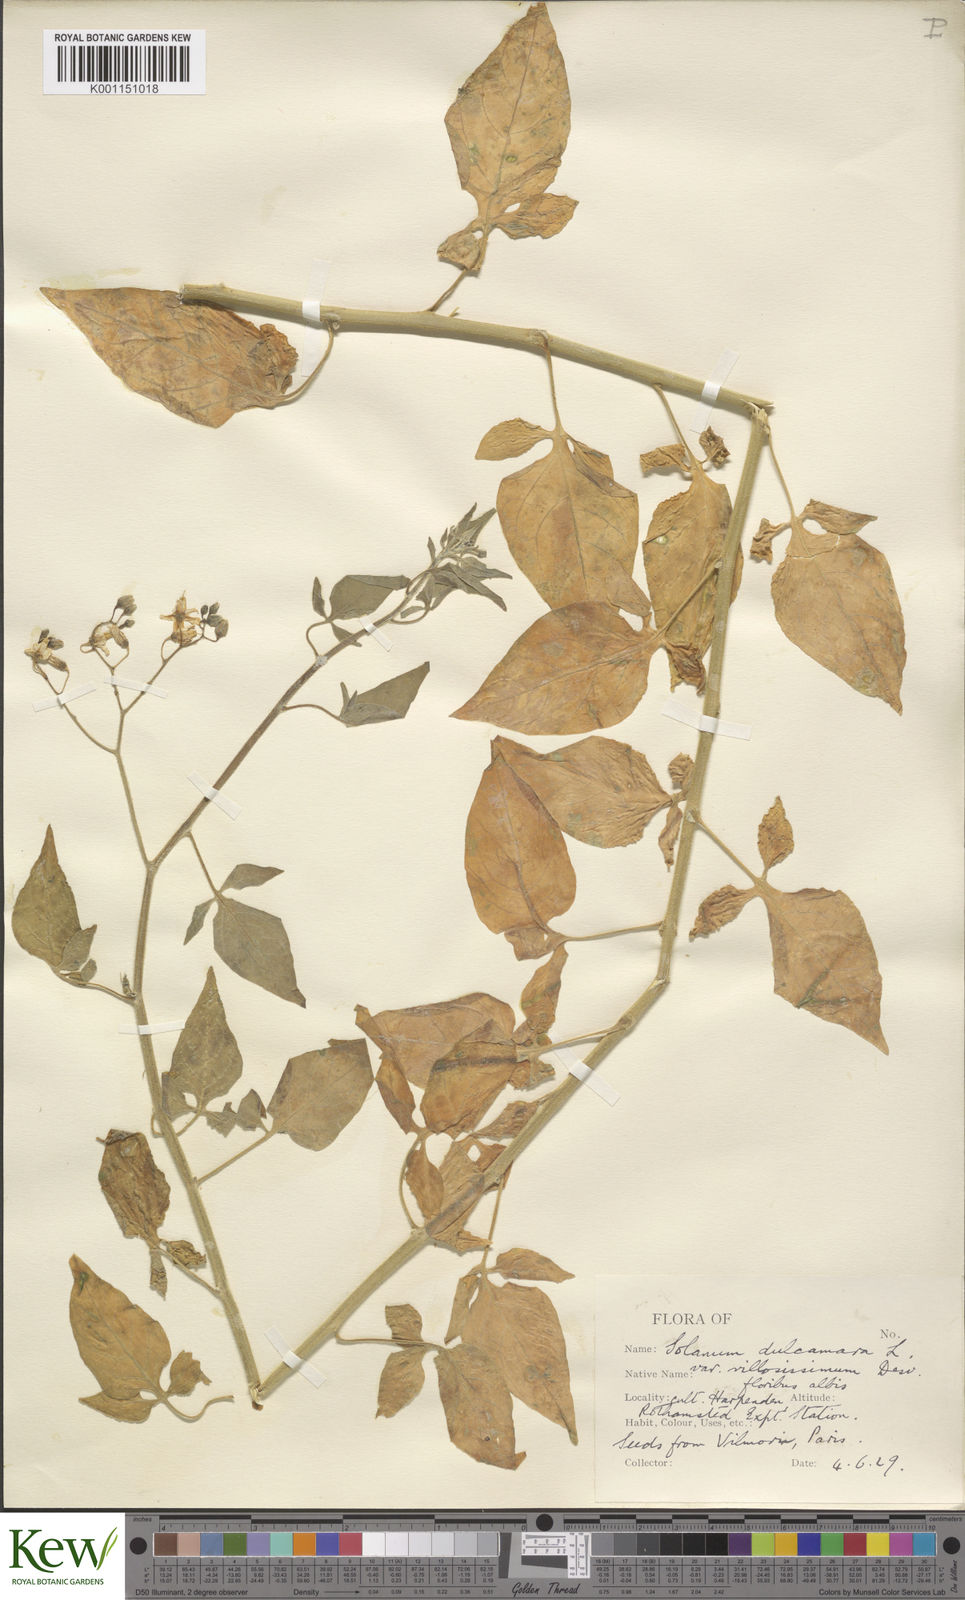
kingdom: Plantae
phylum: Tracheophyta
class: Magnoliopsida
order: Solanales
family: Solanaceae
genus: Solanum
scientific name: Solanum dulcamara
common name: Climbing nightshade
